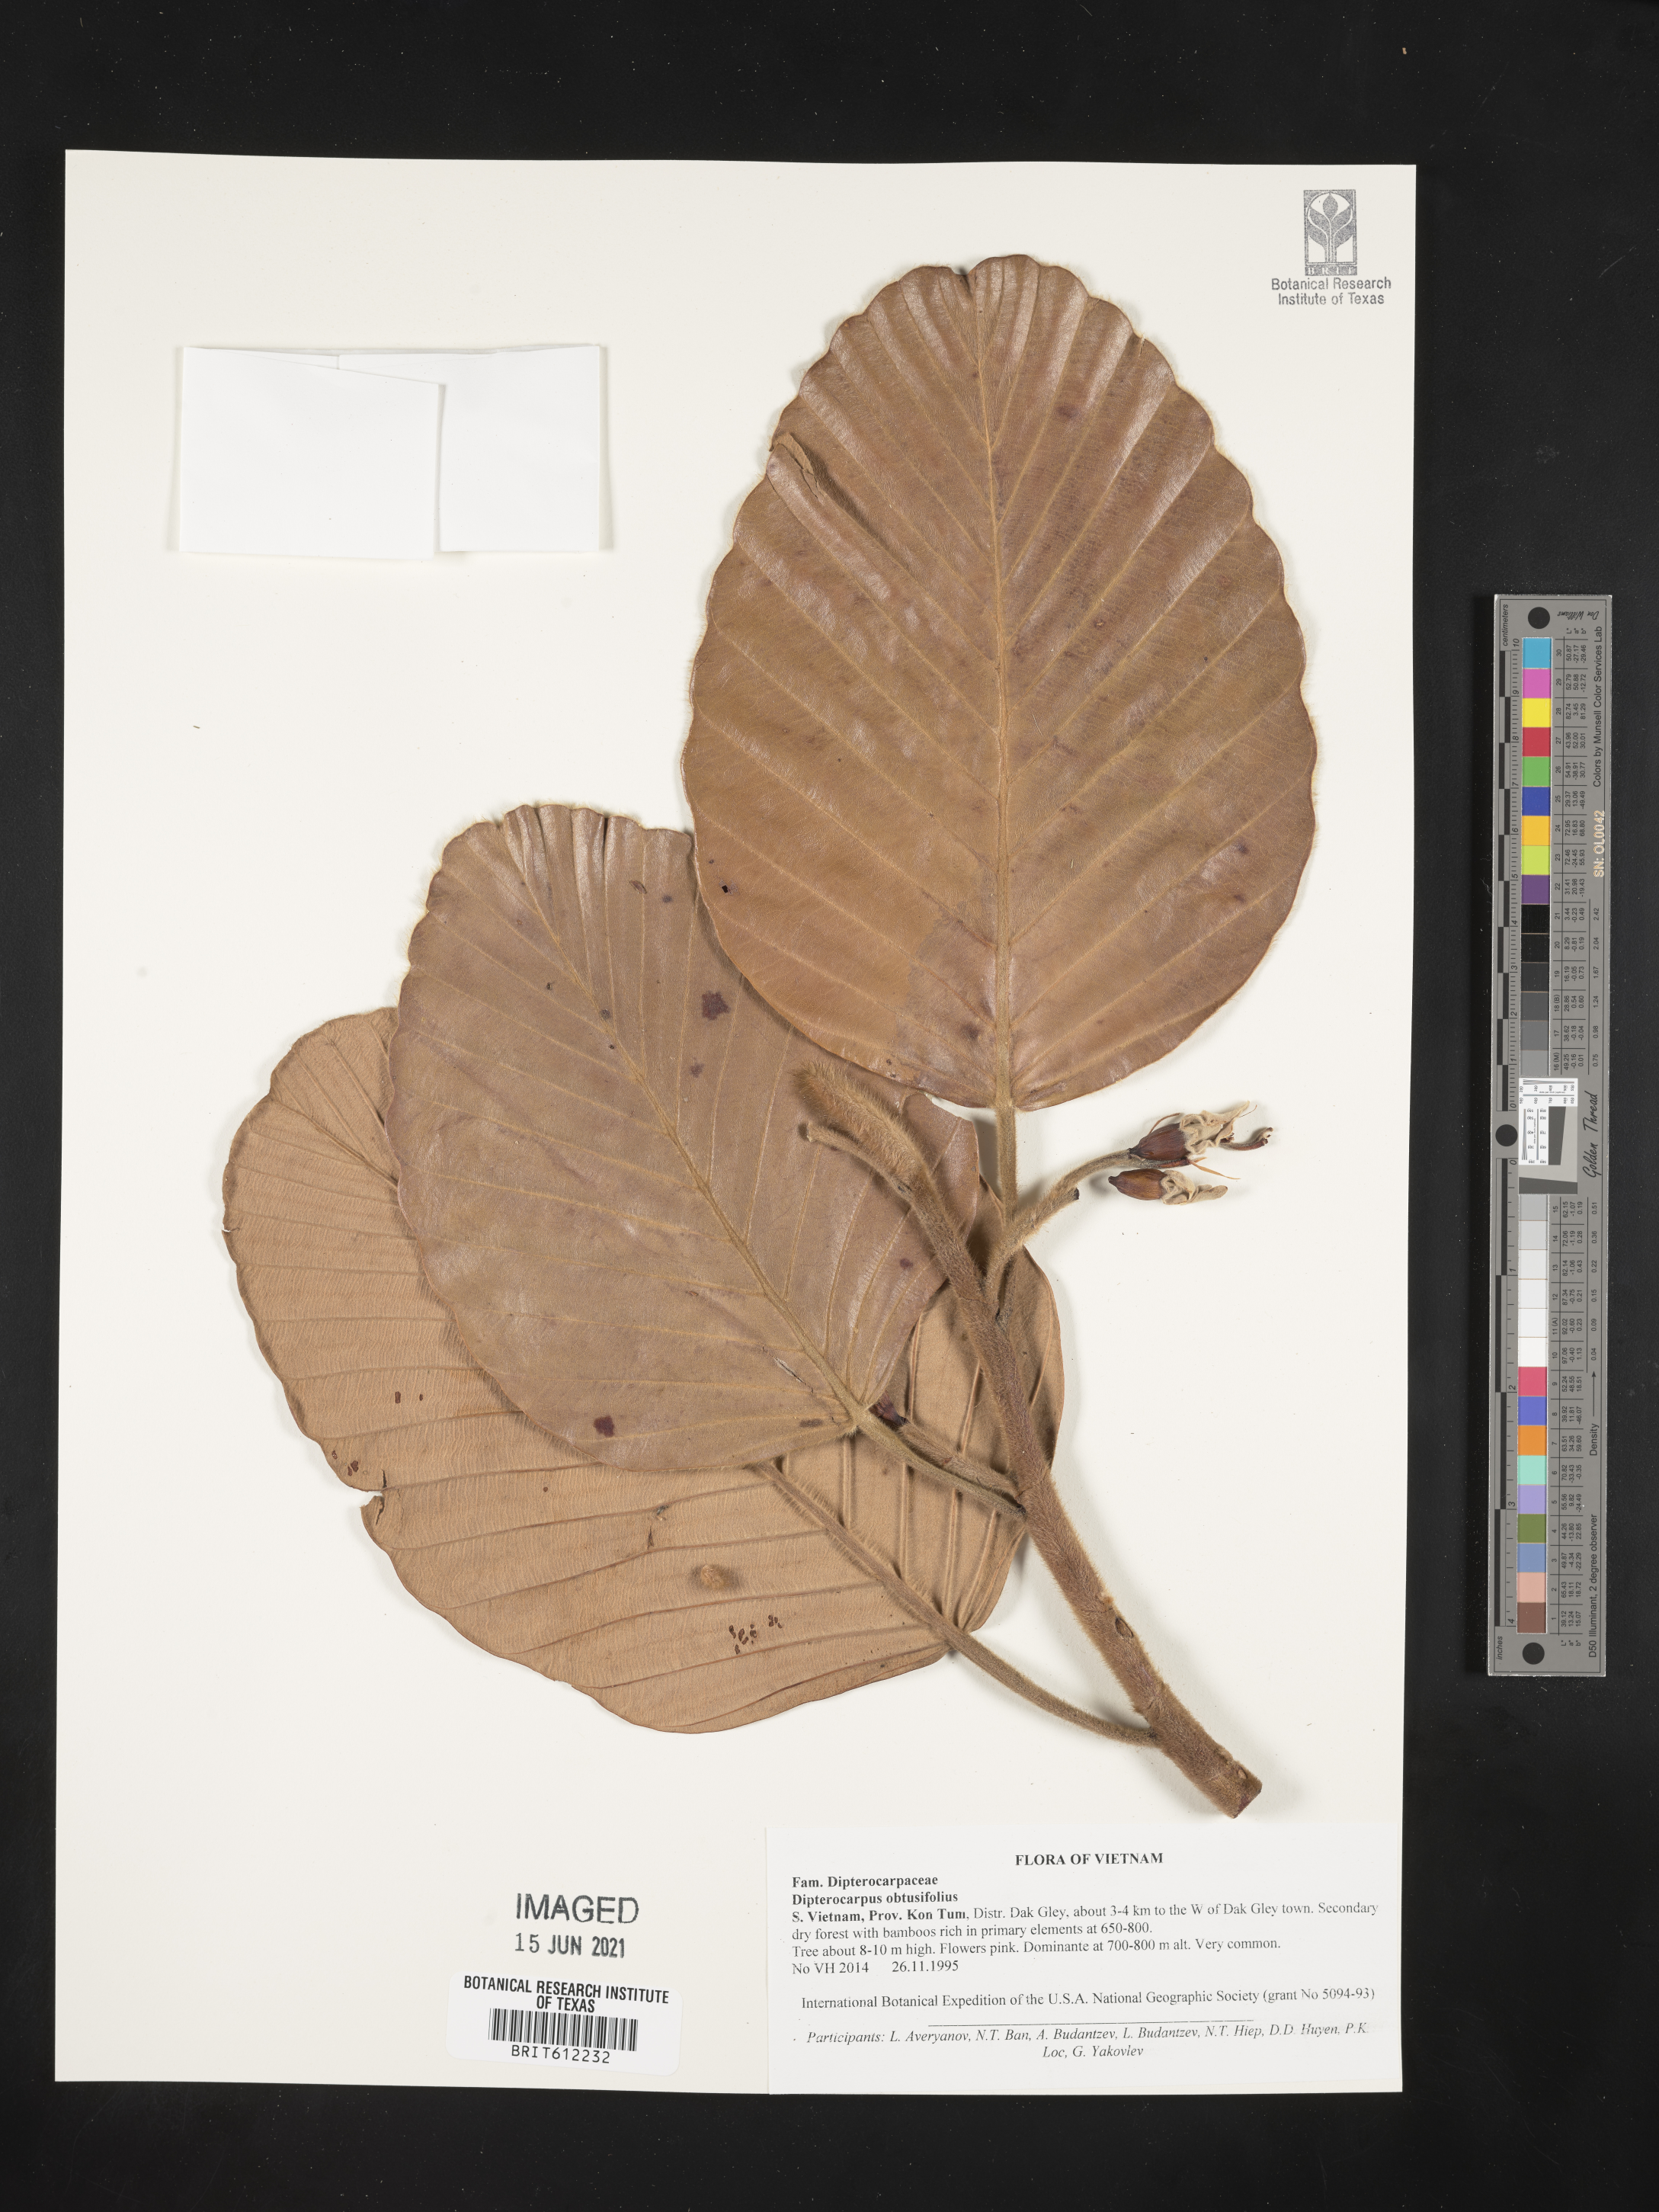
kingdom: Plantae
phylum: Tracheophyta
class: Magnoliopsida
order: Malvales
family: Dipterocarpaceae
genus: Dipterocarpus
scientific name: Dipterocarpus obtusifolius
